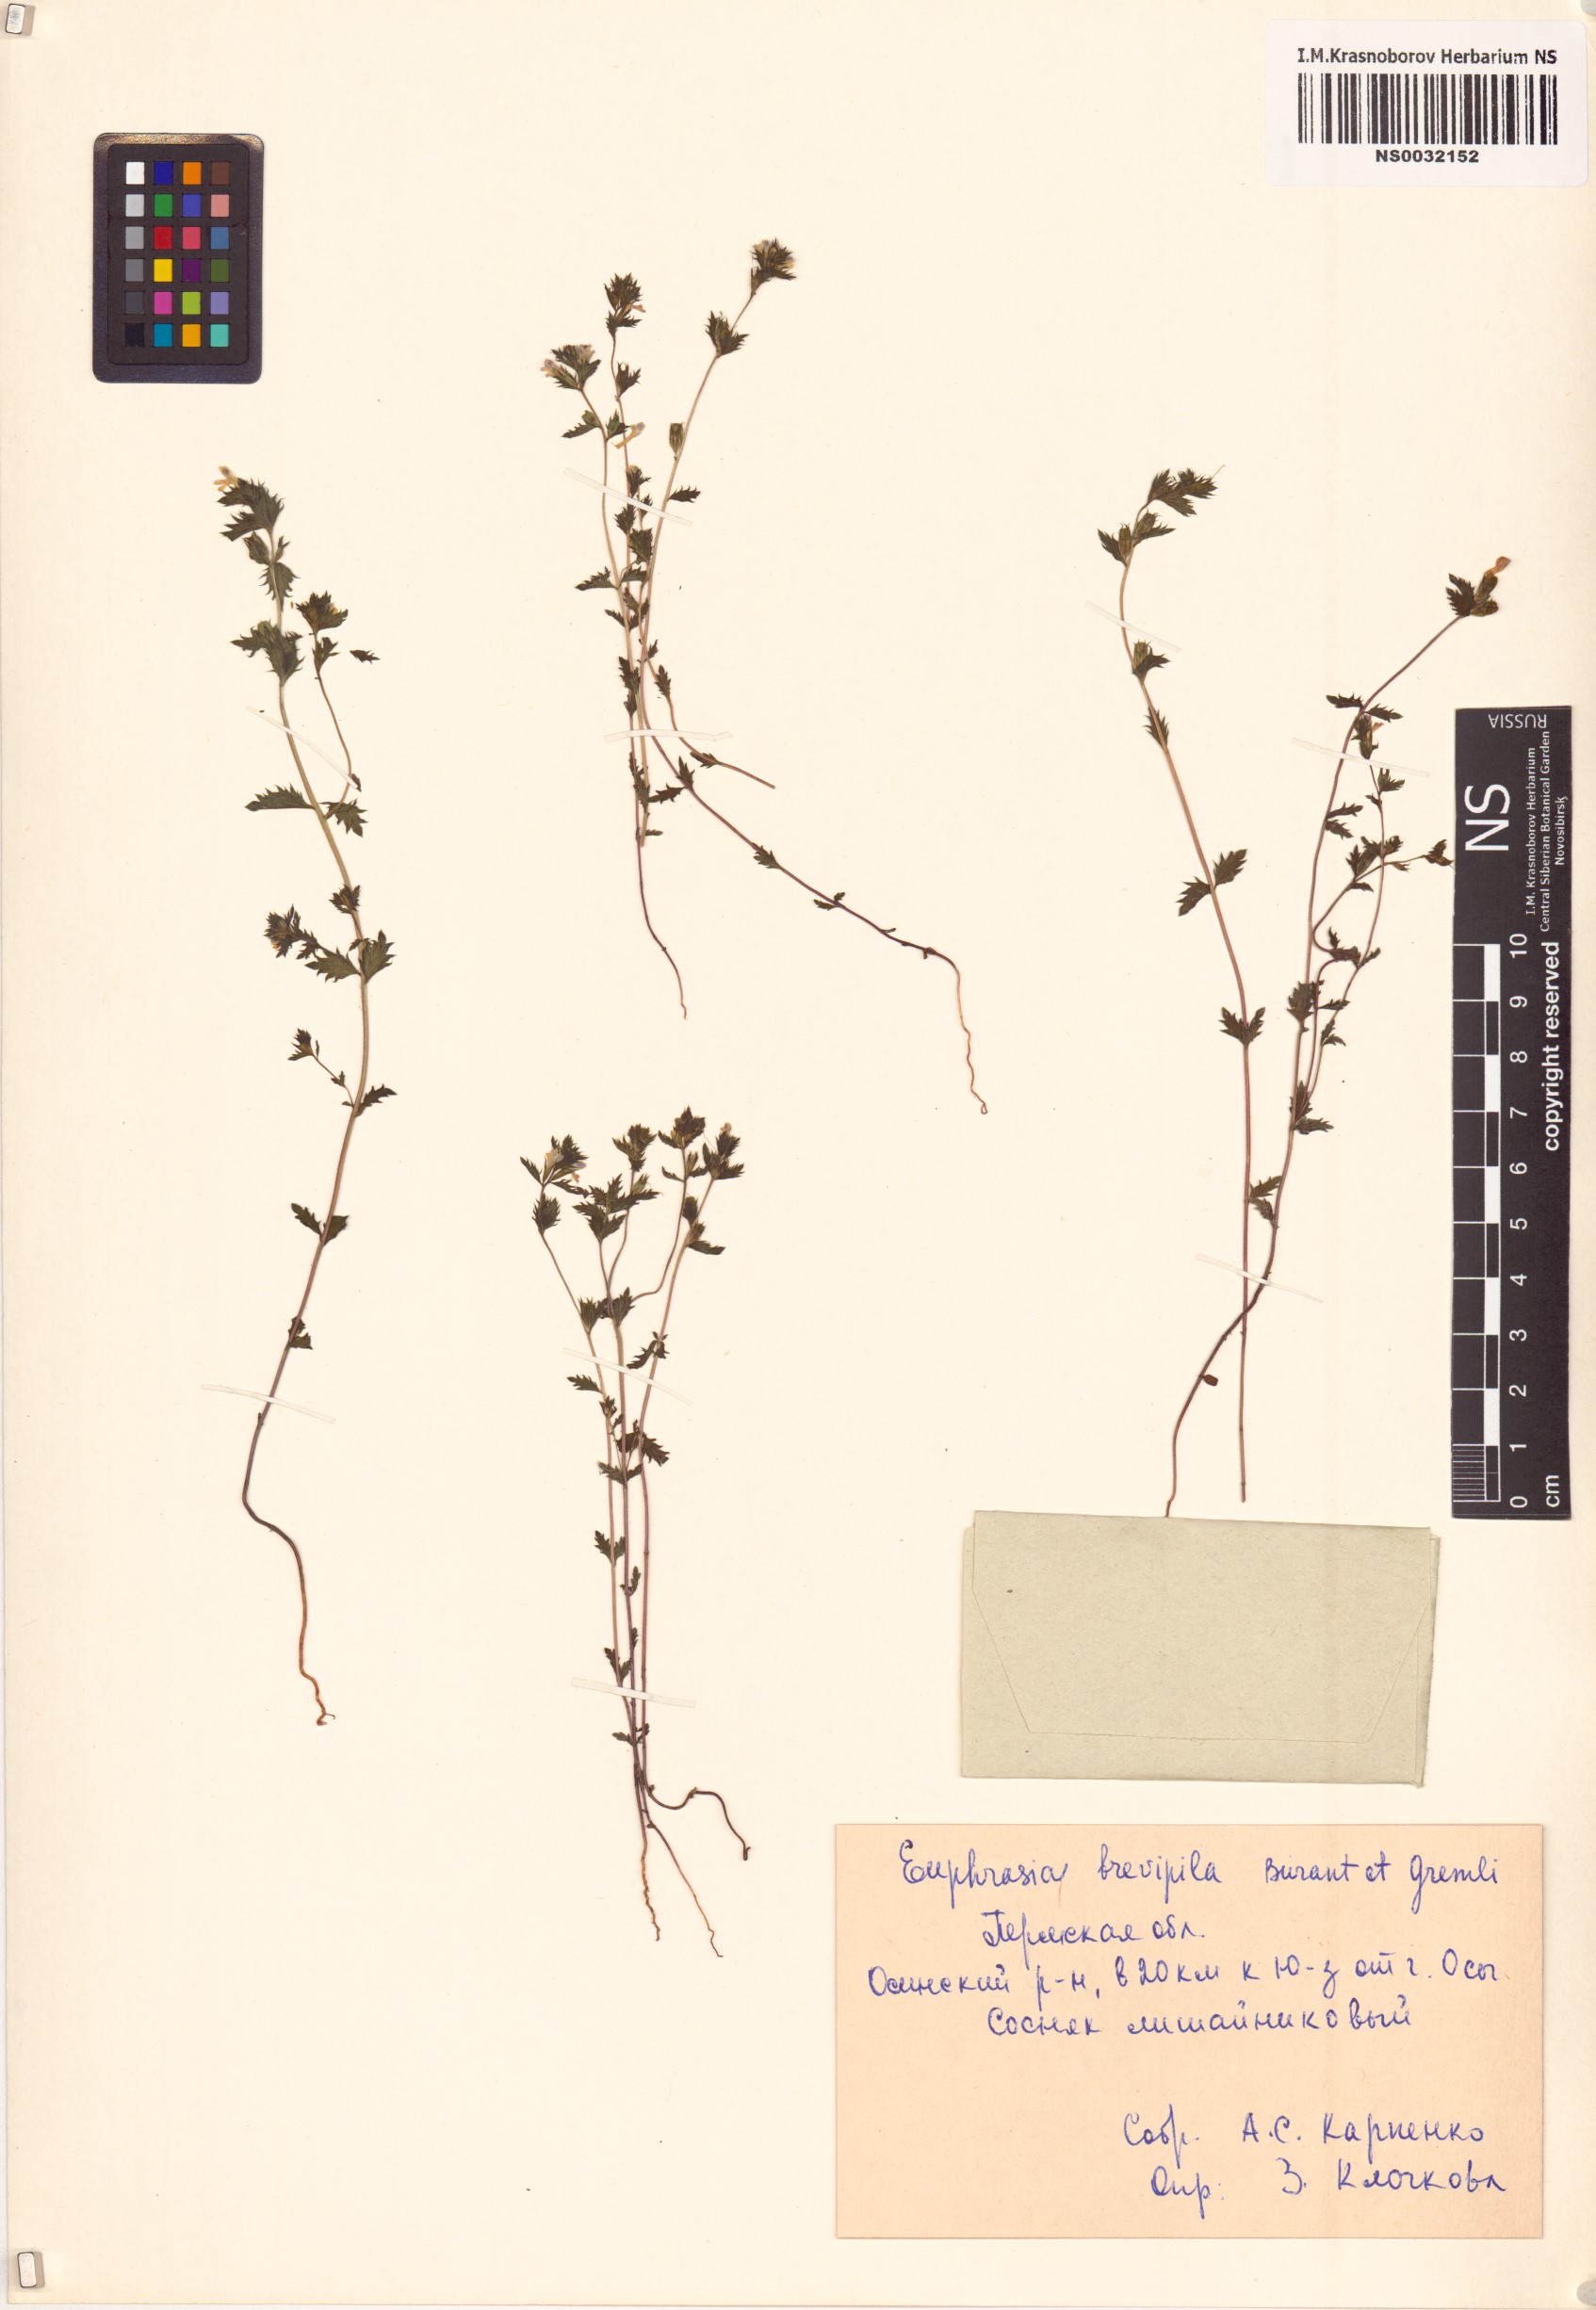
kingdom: Plantae
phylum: Tracheophyta
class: Magnoliopsida
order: Lamiales
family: Orobanchaceae
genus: Euphrasia
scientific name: Euphrasia vernalis
